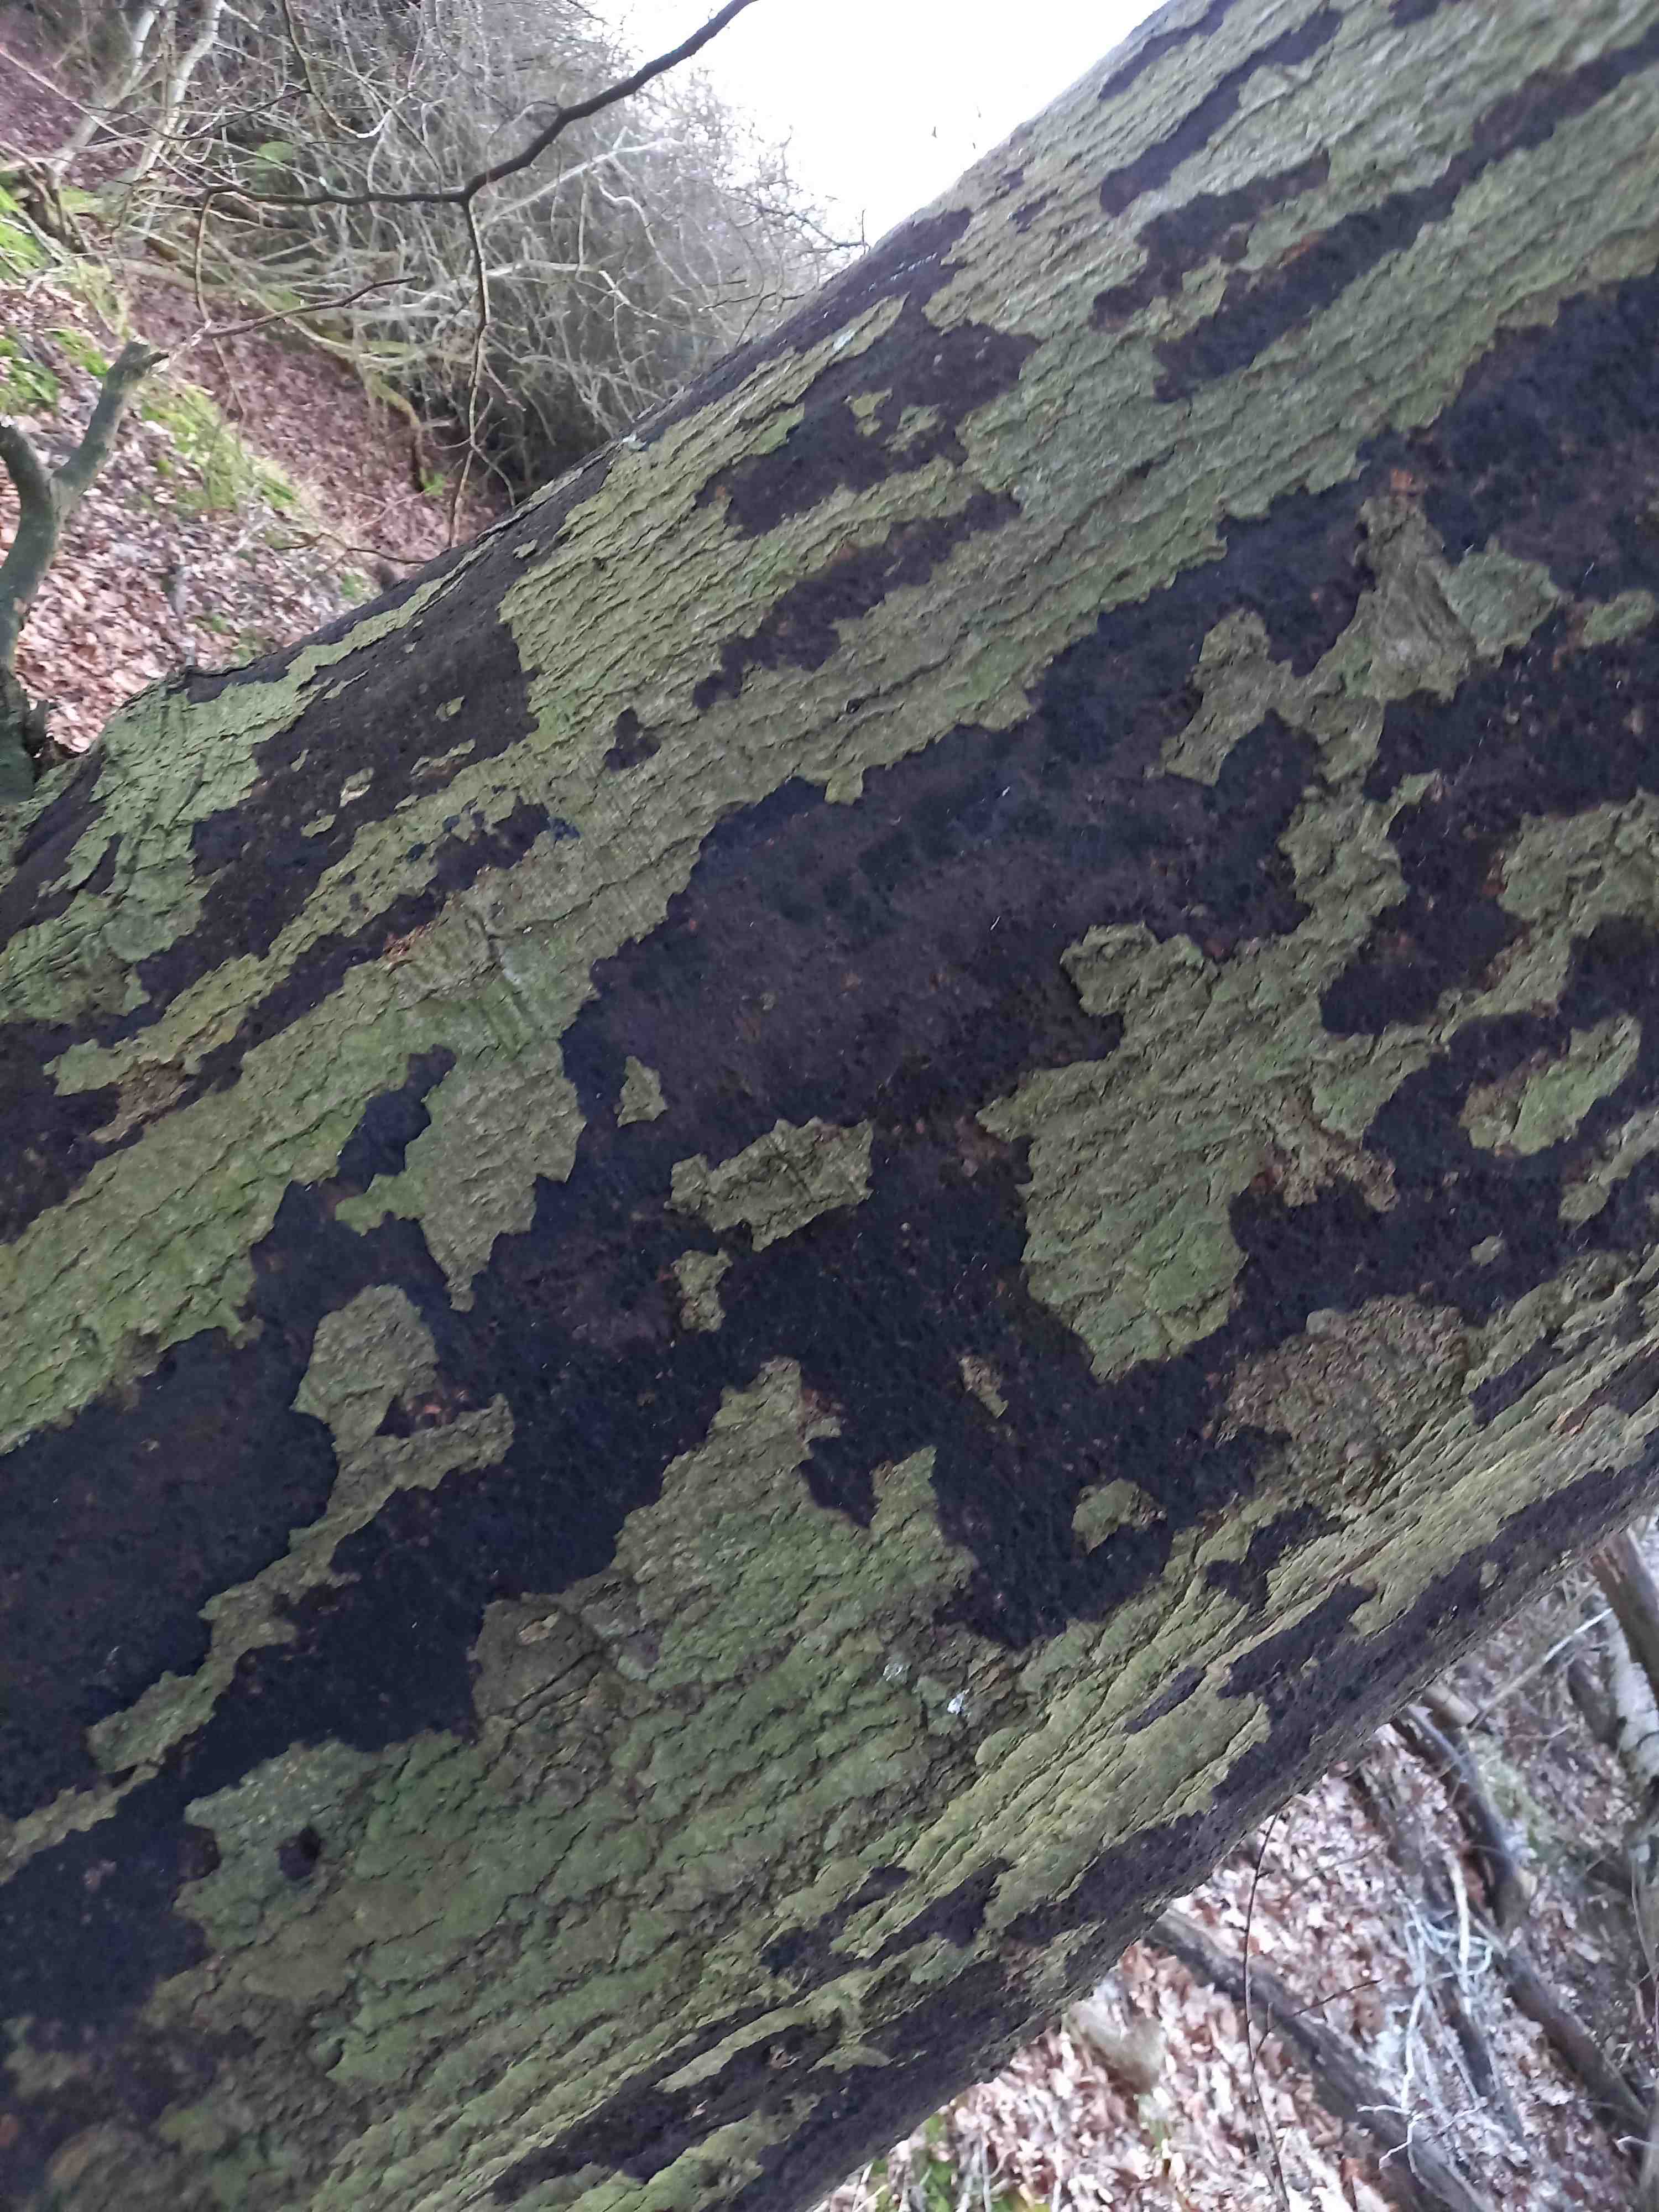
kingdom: Fungi
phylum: Ascomycota
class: Sordariomycetes
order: Xylariales
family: Diatrypaceae
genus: Eutypa
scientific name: Eutypa spinosa
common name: grov kulskorpe
